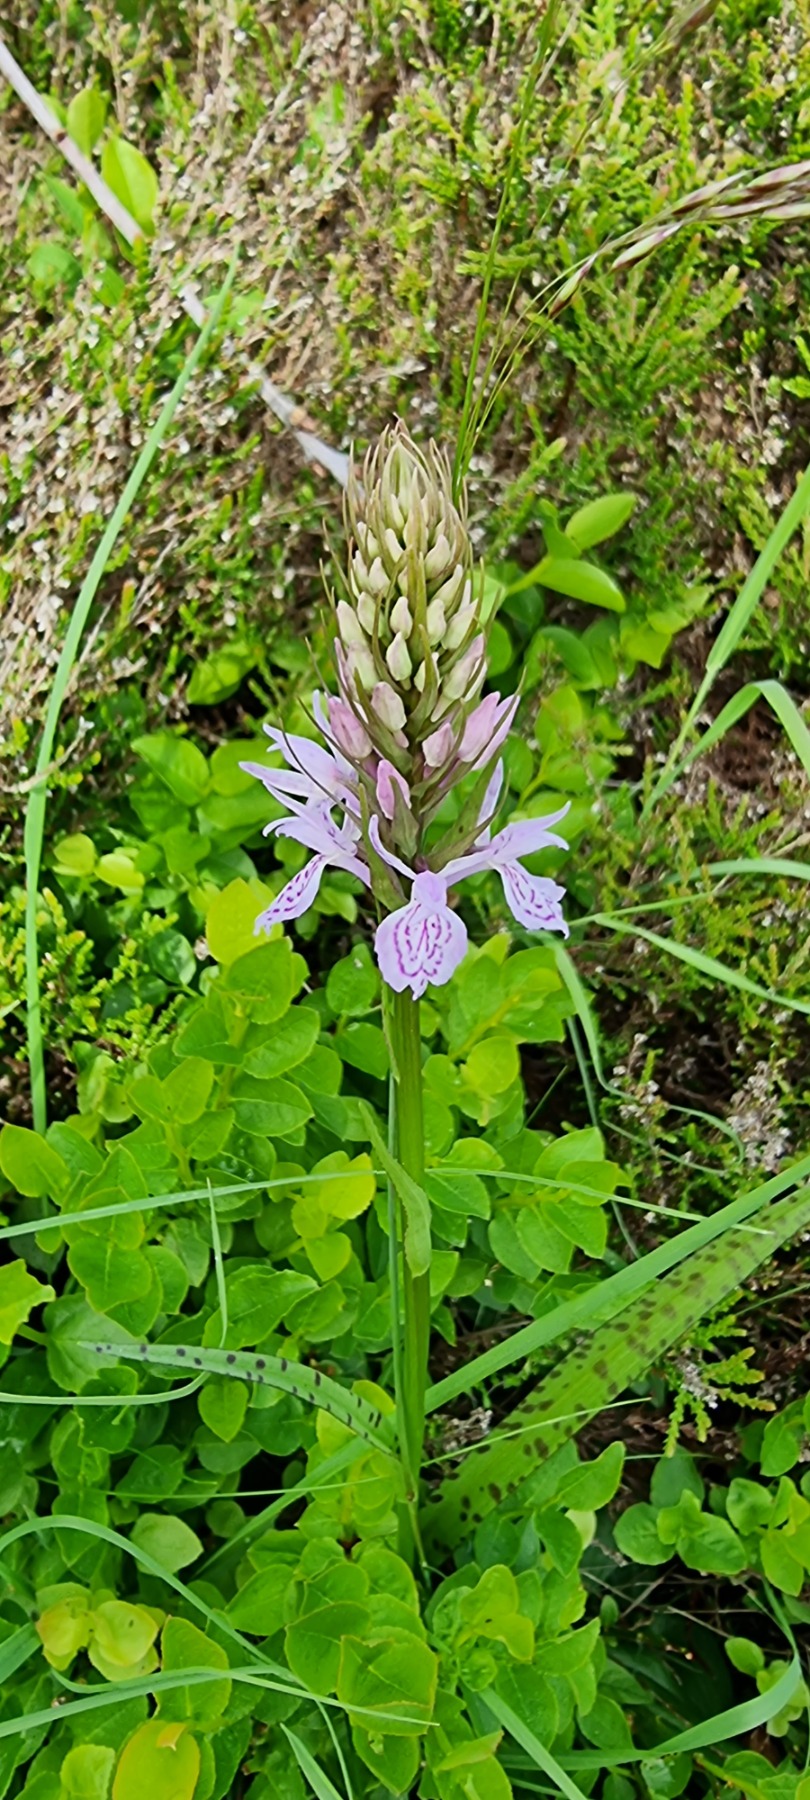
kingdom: Plantae
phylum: Tracheophyta
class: Liliopsida
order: Asparagales
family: Orchidaceae
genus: Dactylorhiza
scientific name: Dactylorhiza maculata
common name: Plettet gøgeurt
